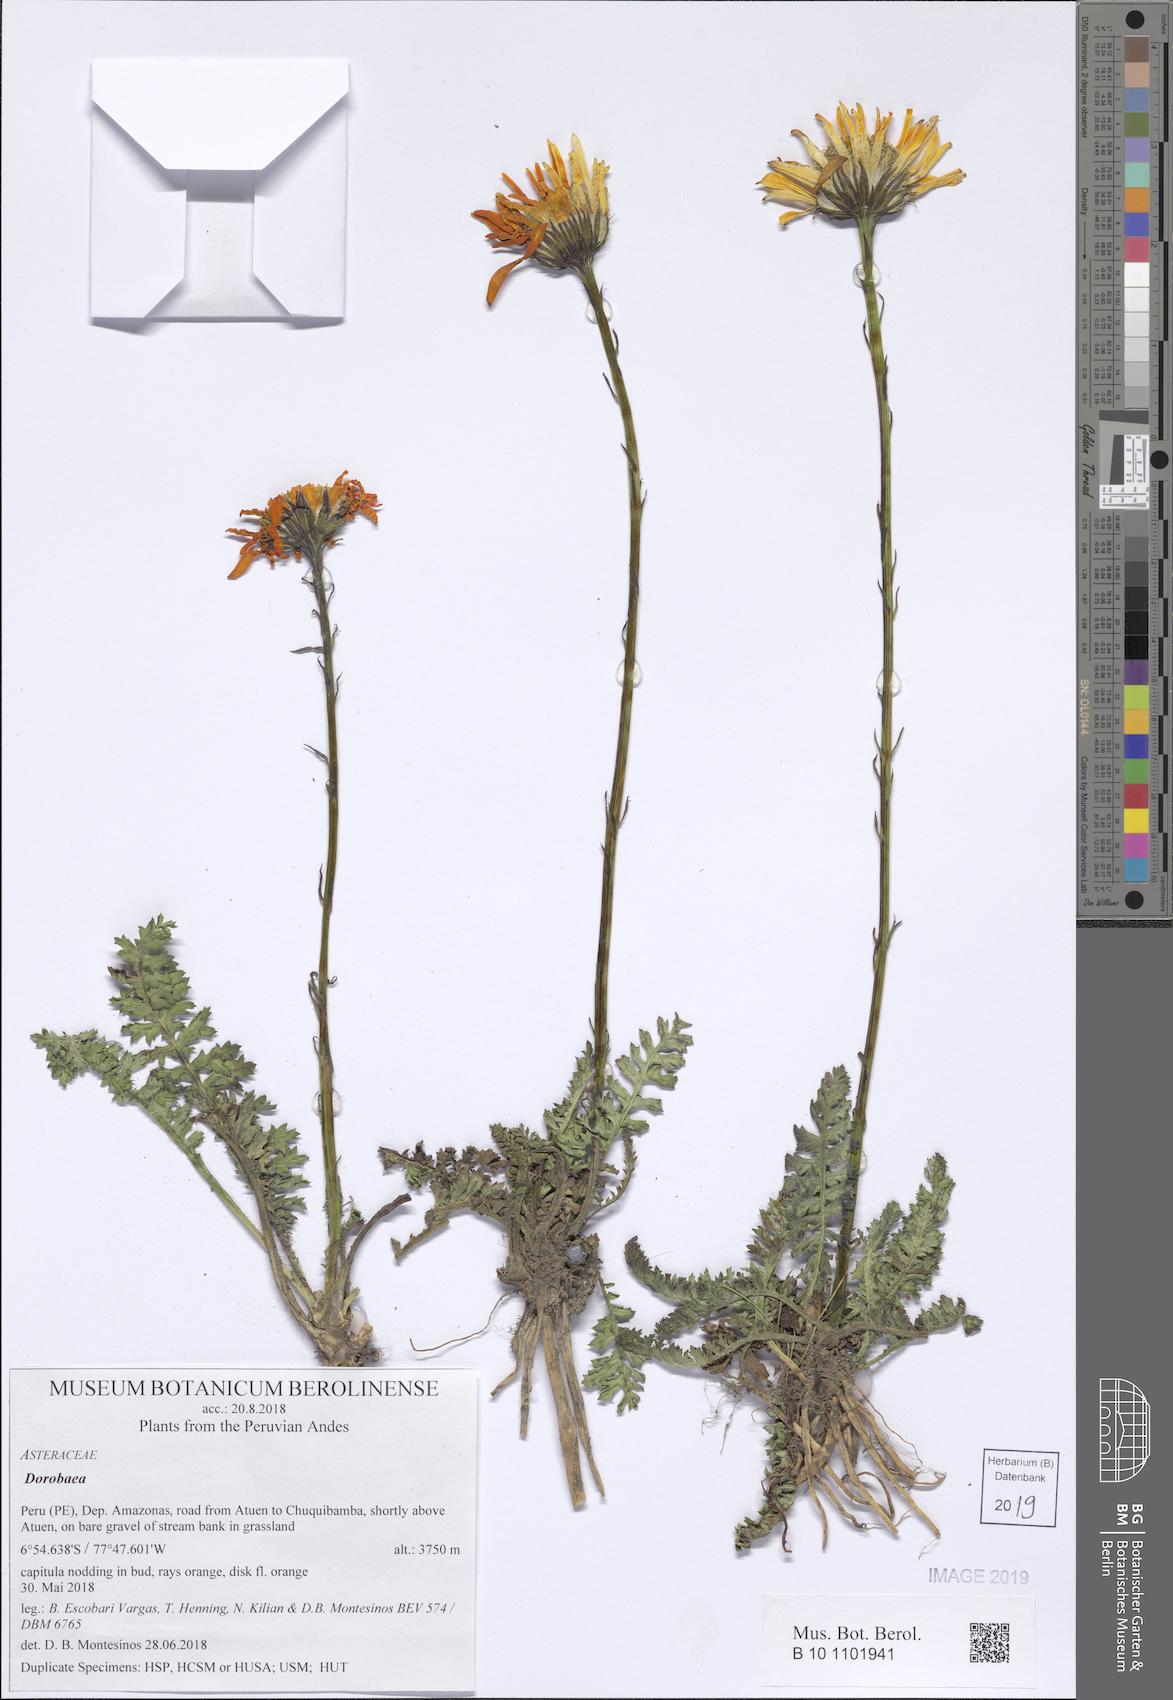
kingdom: Plantae
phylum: Tracheophyta
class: Magnoliopsida
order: Asterales
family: Asteraceae
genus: Dorobaea
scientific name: Dorobaea pimpinellifolia
